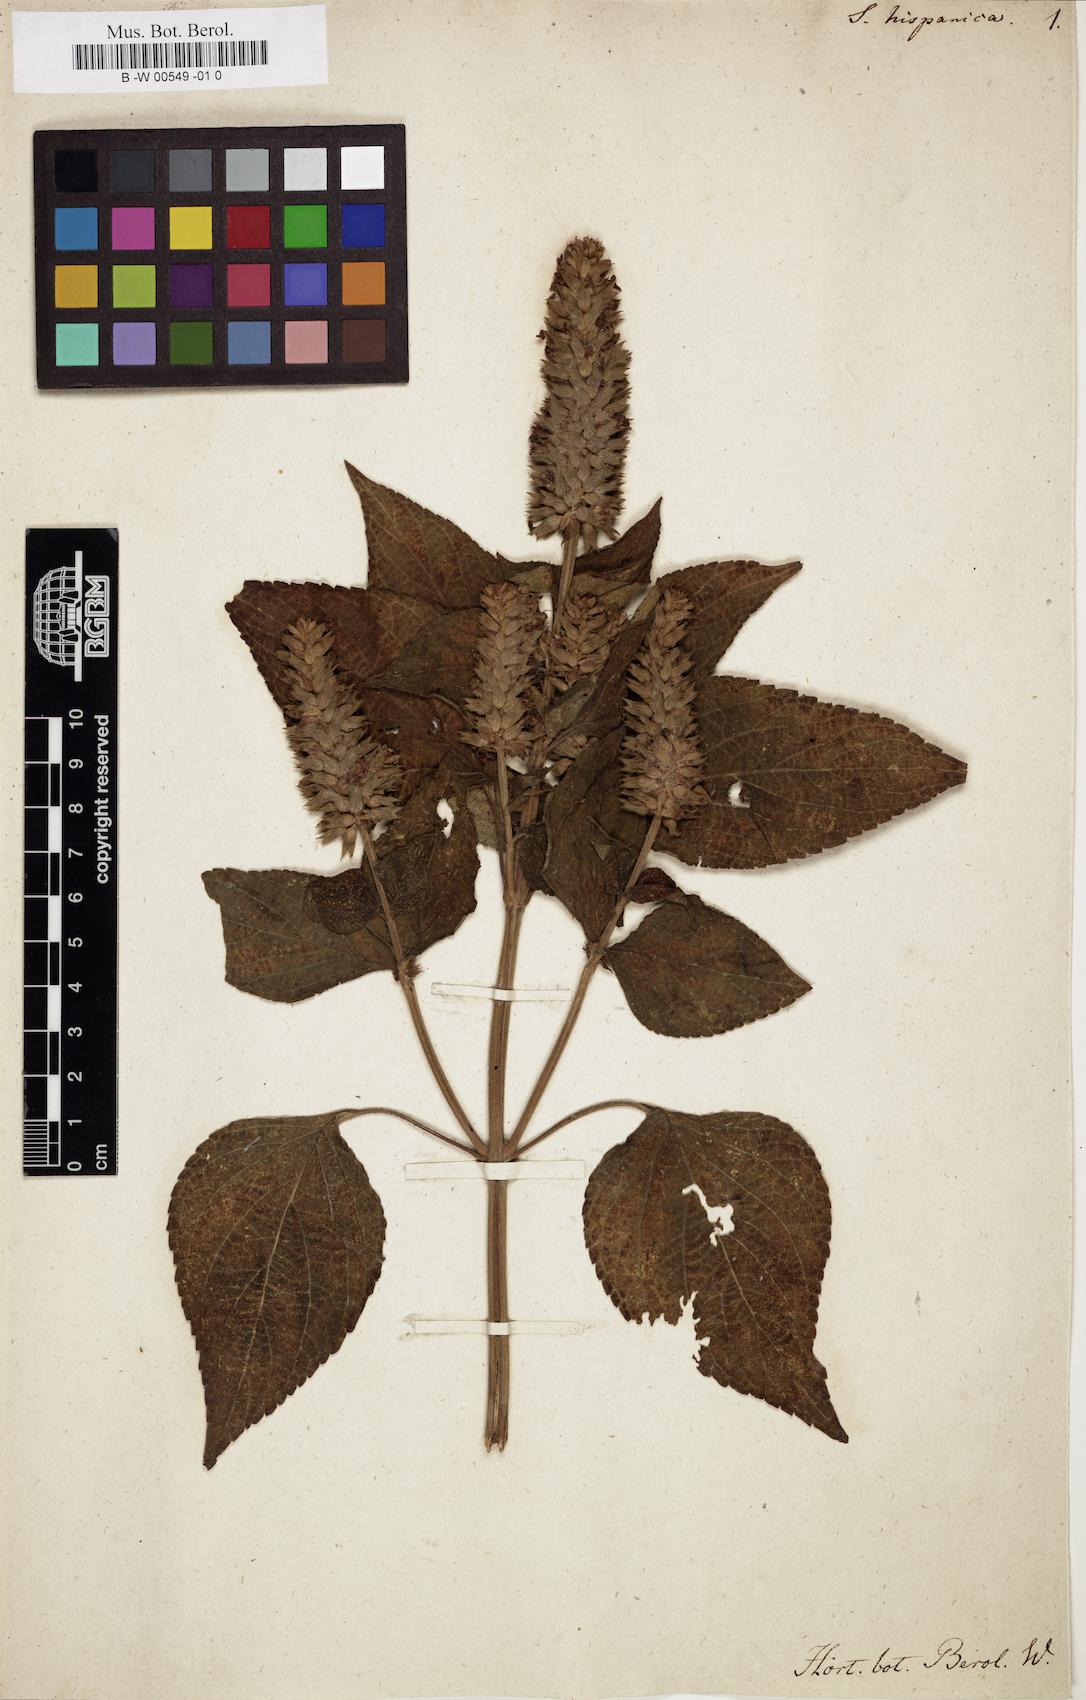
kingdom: Plantae
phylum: Tracheophyta
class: Magnoliopsida
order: Lamiales
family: Lamiaceae
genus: Salvia
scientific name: Salvia hispanica
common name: Chia
